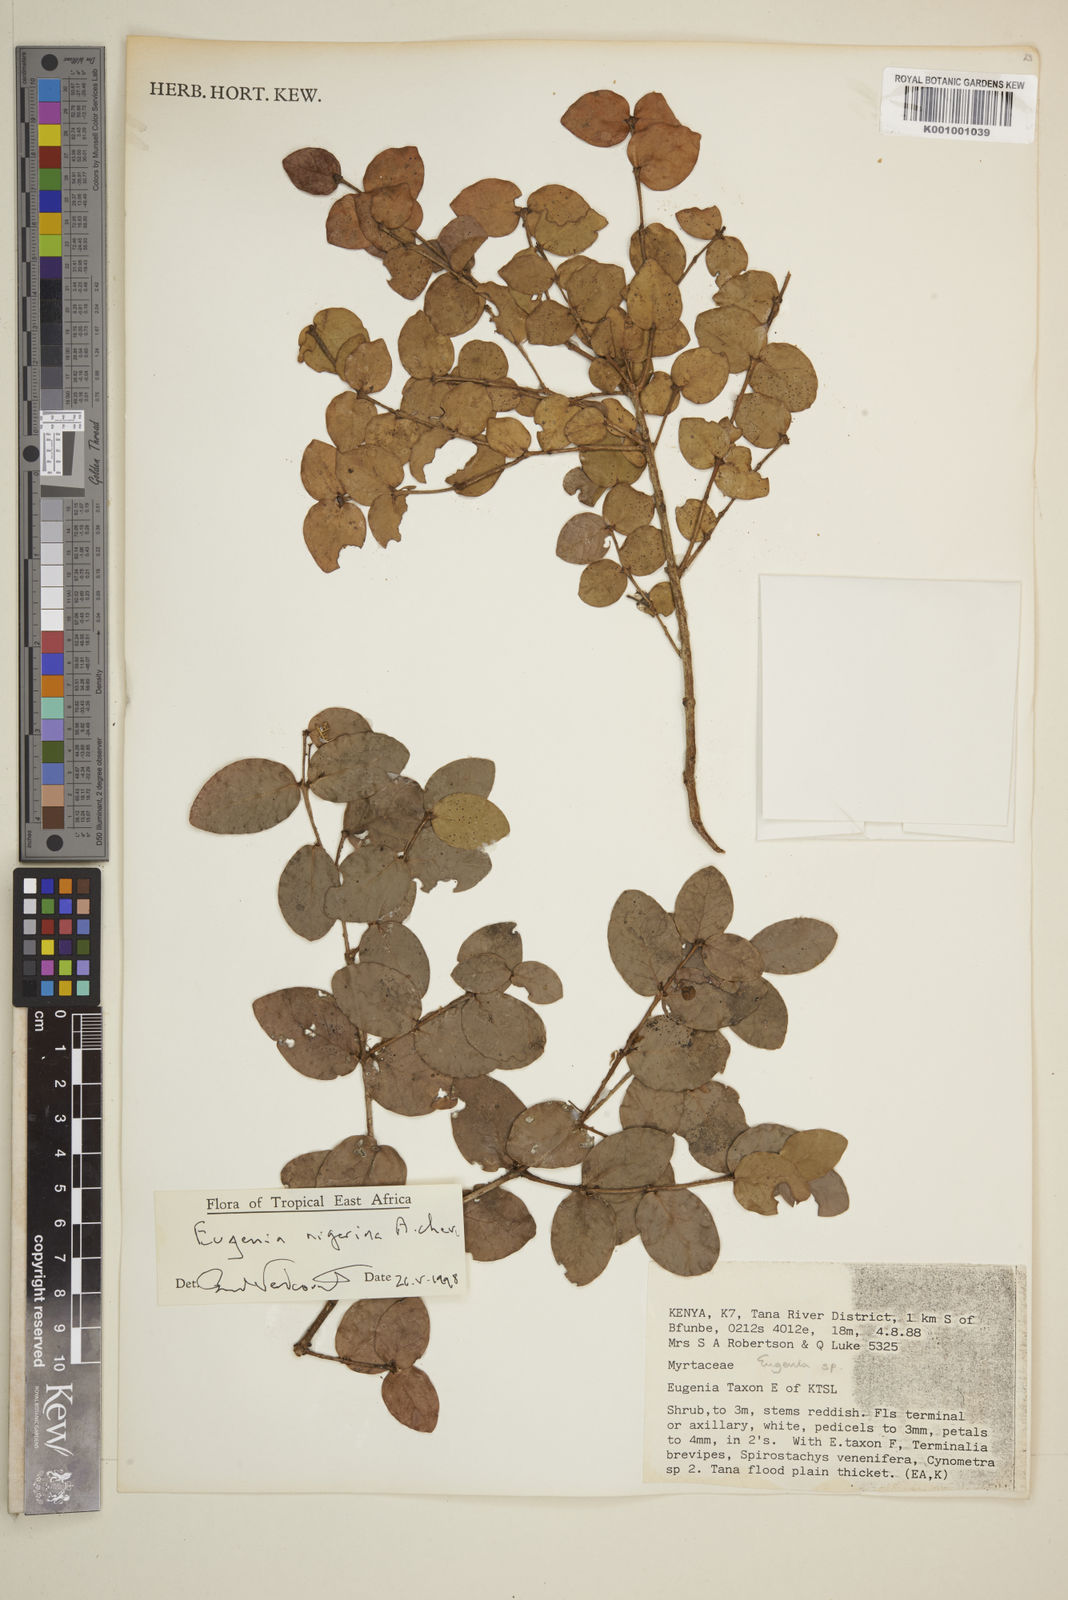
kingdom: Plantae
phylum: Tracheophyta
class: Magnoliopsida
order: Myrtales
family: Myrtaceae
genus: Eugenia
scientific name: Eugenia nigerina
